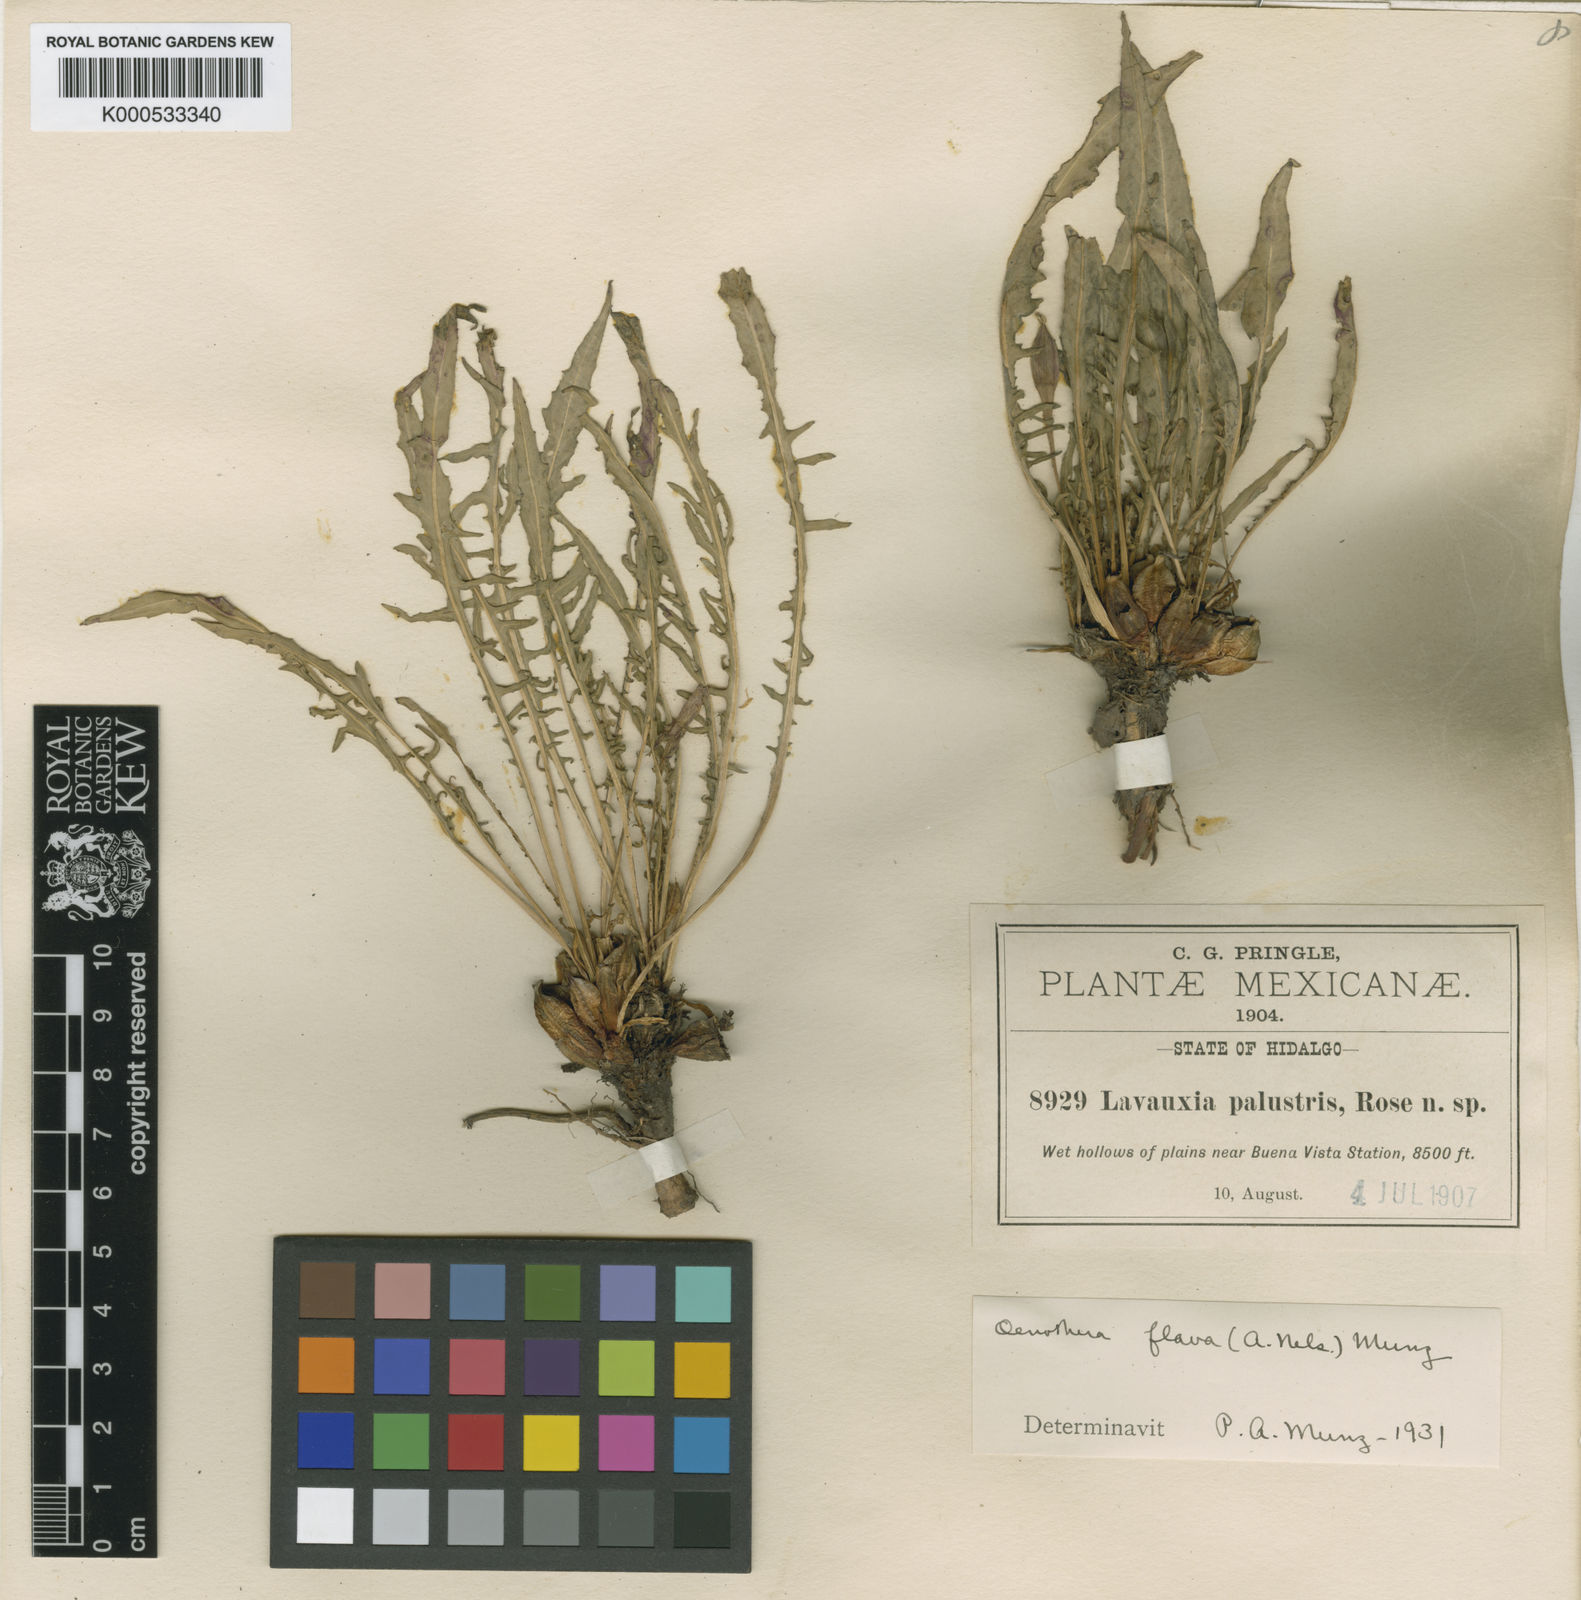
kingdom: Plantae
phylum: Tracheophyta
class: Magnoliopsida
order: Myrtales
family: Onagraceae
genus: Oenothera
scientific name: Oenothera flava
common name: Long-tubed evening-primrose
